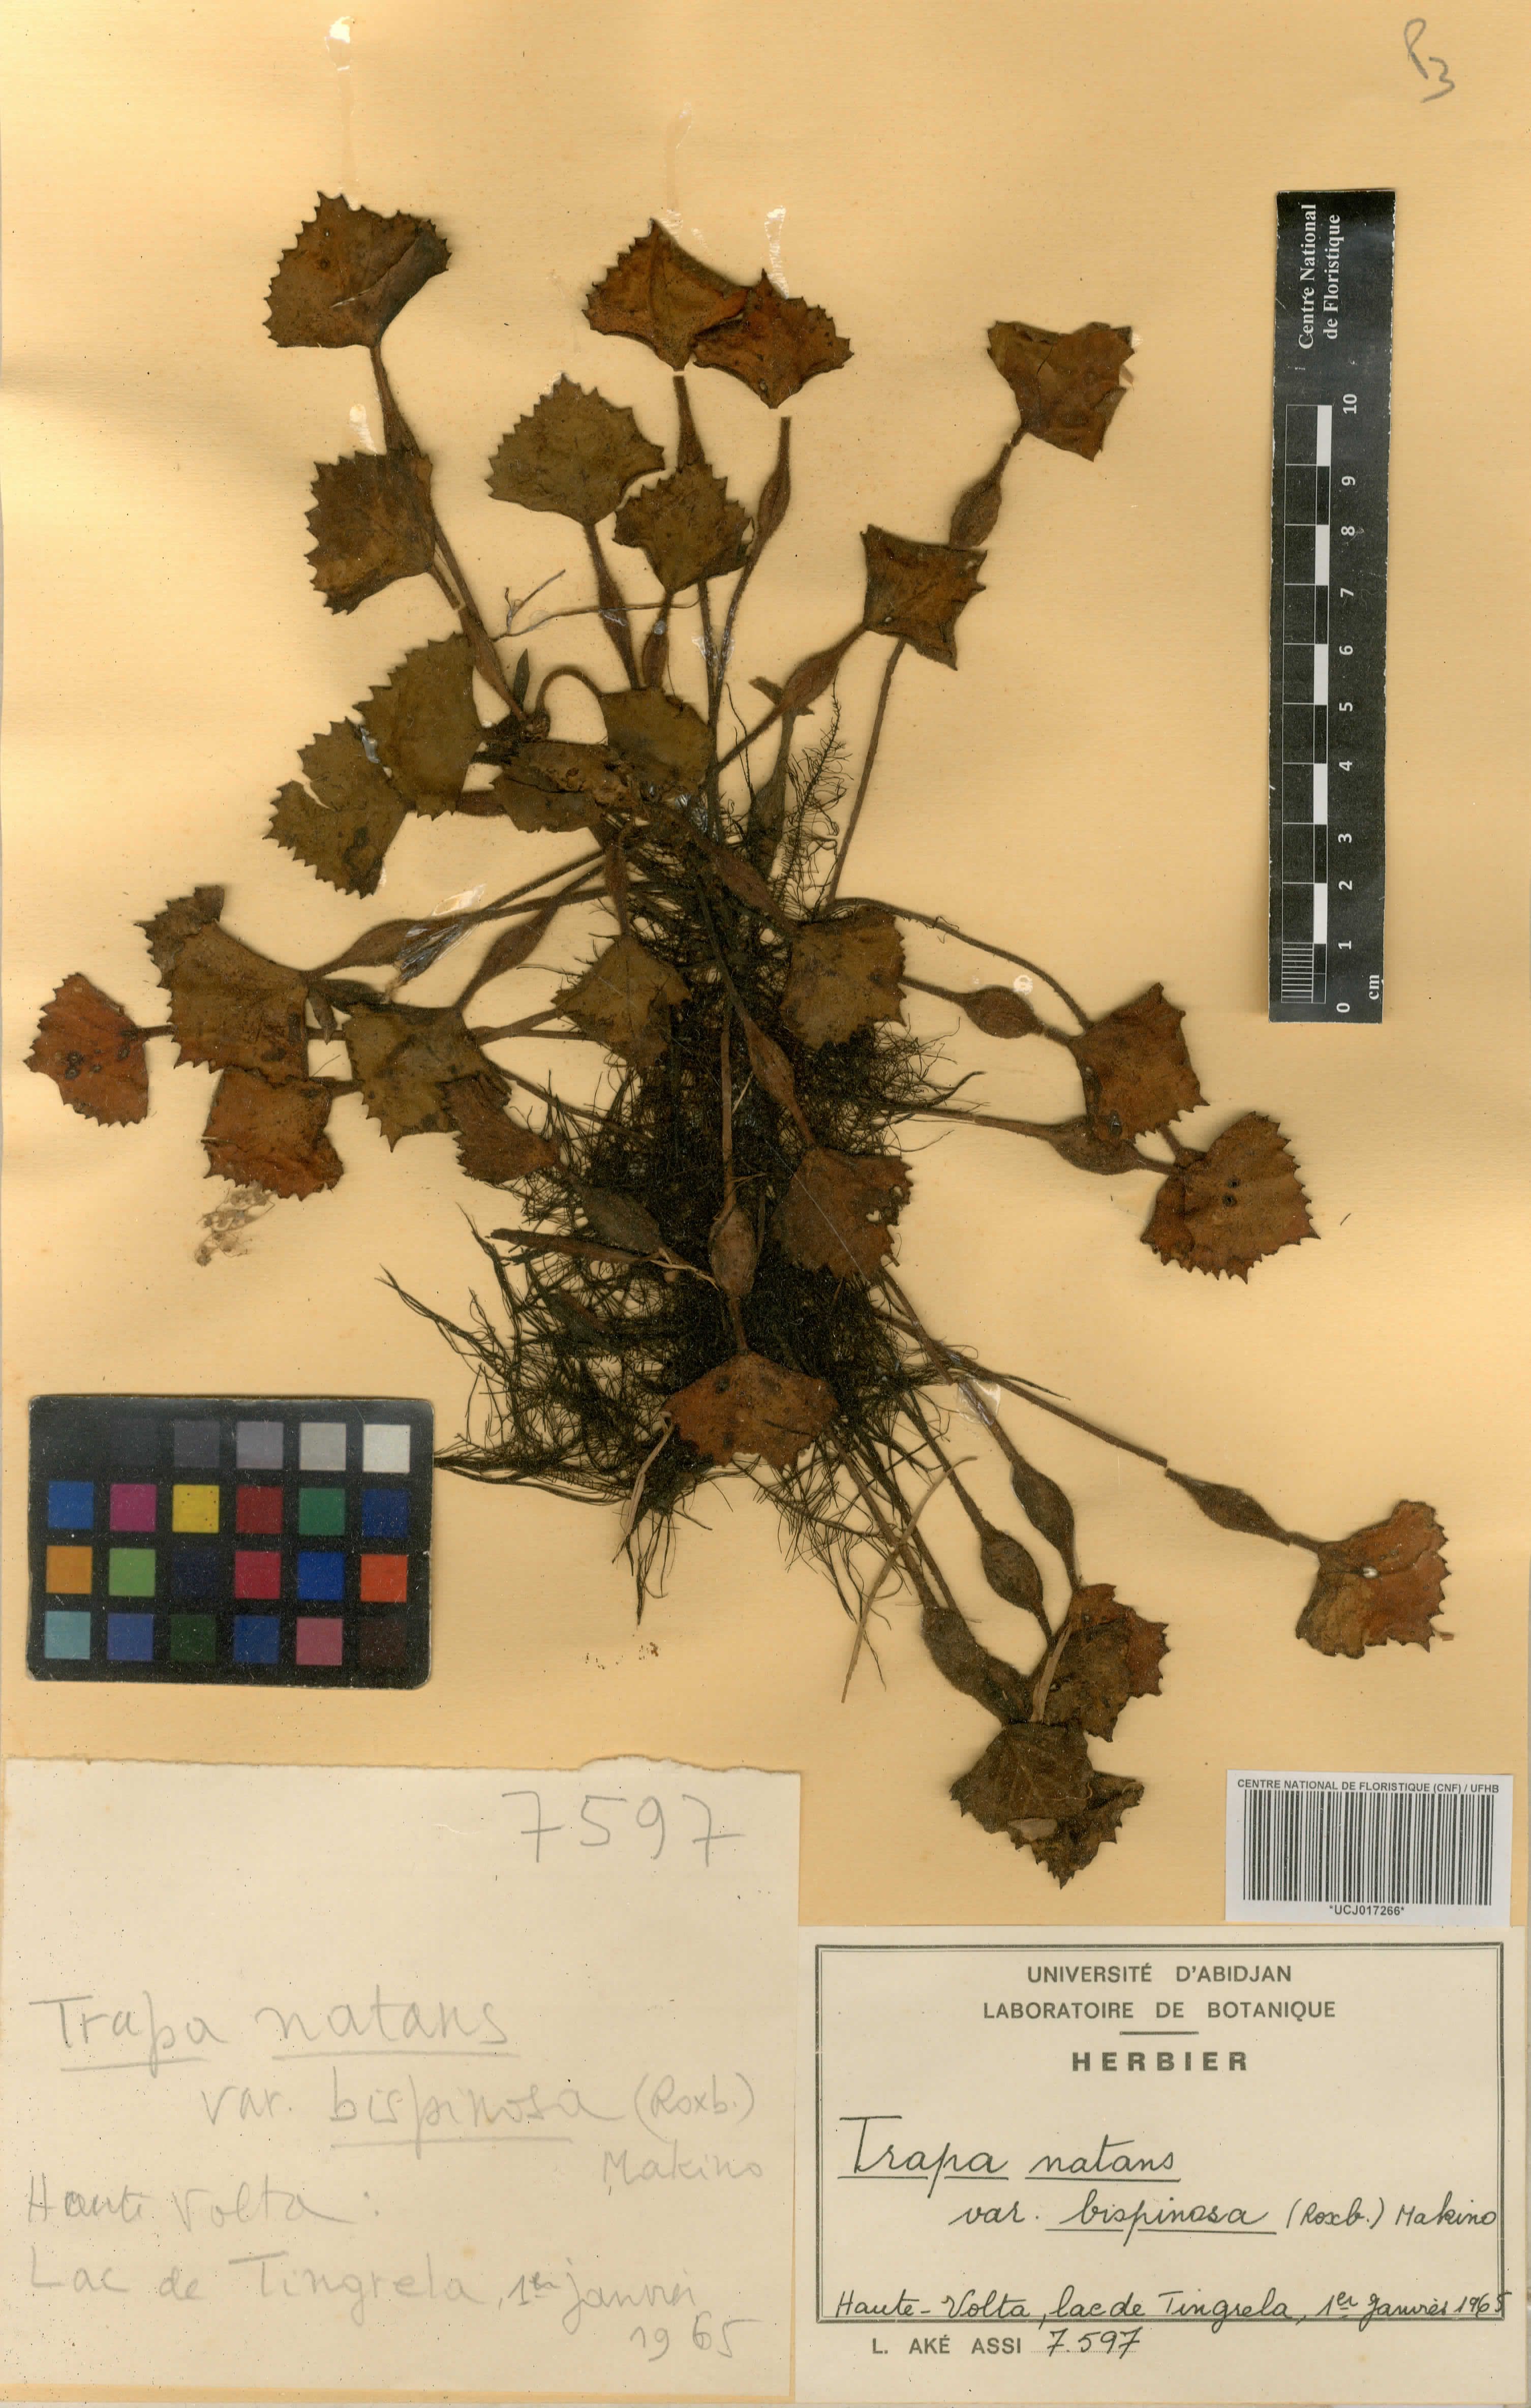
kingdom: Plantae
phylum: Tracheophyta
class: Magnoliopsida
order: Myrtales
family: Lythraceae
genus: Trapa
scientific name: Trapa natans
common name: Water chestnut
